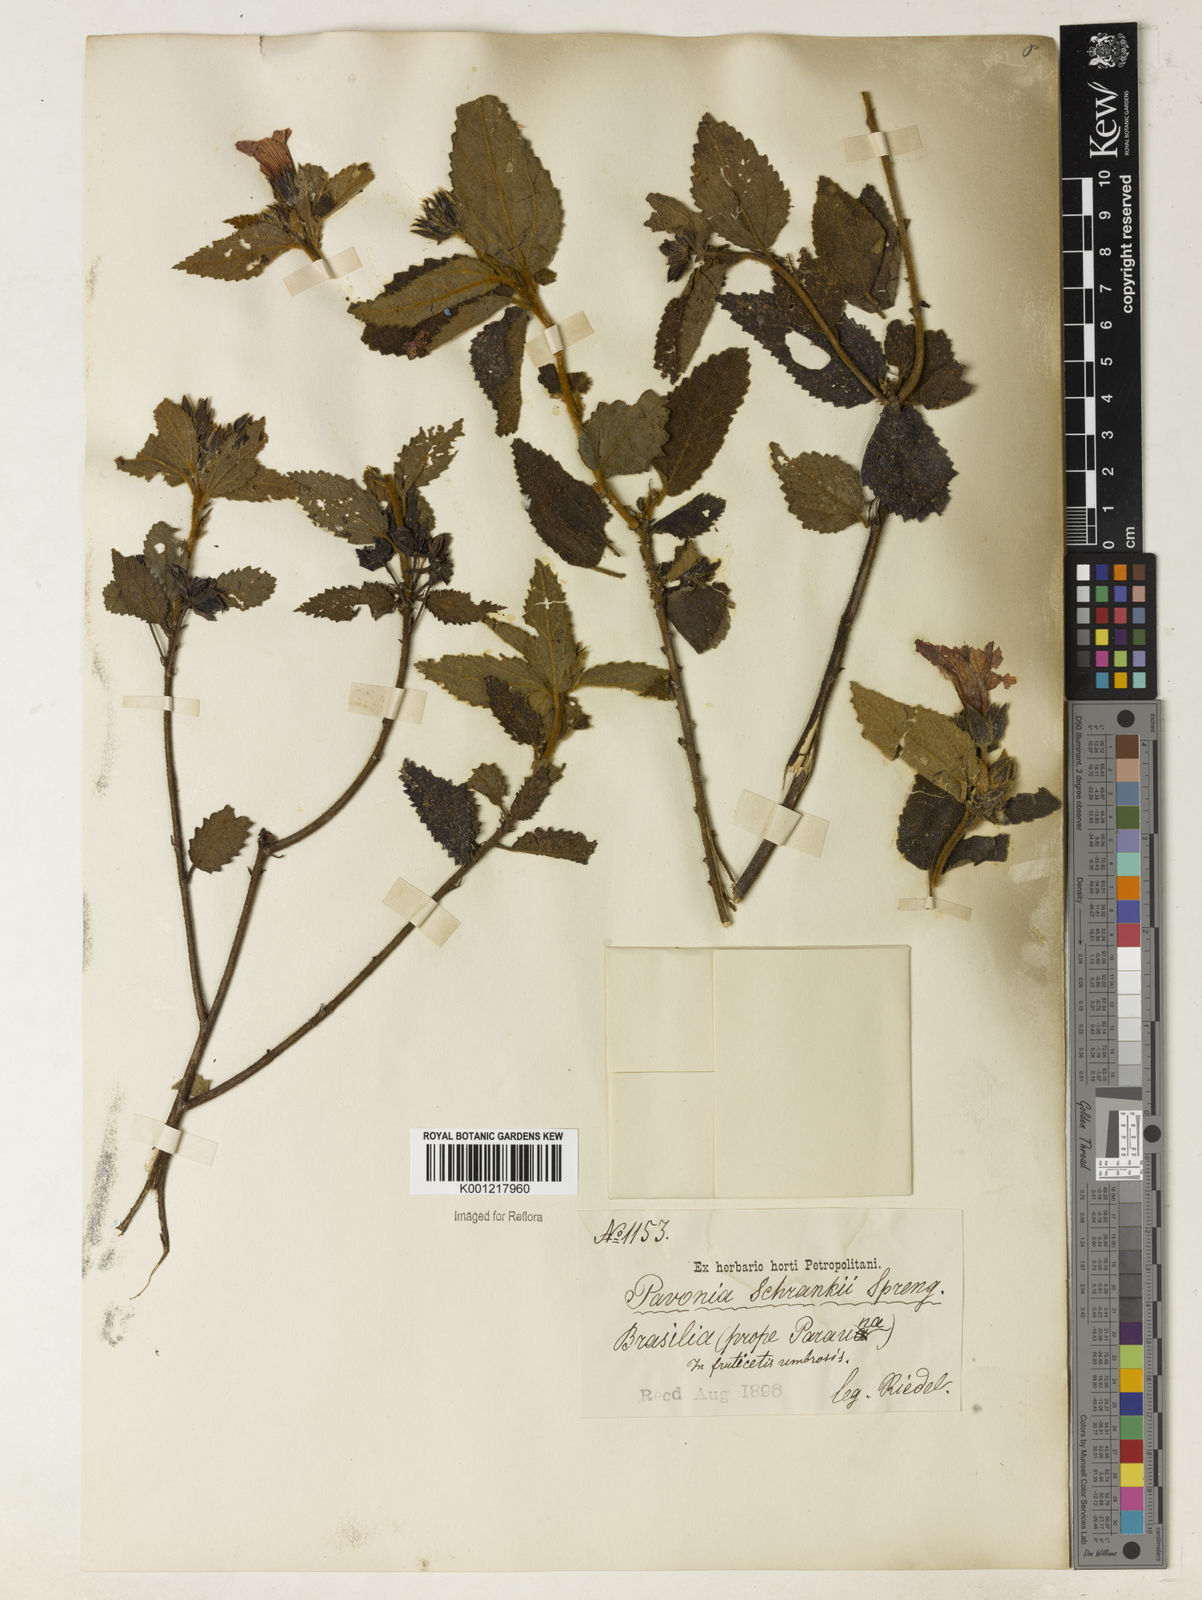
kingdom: Plantae
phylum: Tracheophyta
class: Magnoliopsida
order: Malvales
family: Malvaceae
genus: Pavonia
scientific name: Pavonia schrankii
